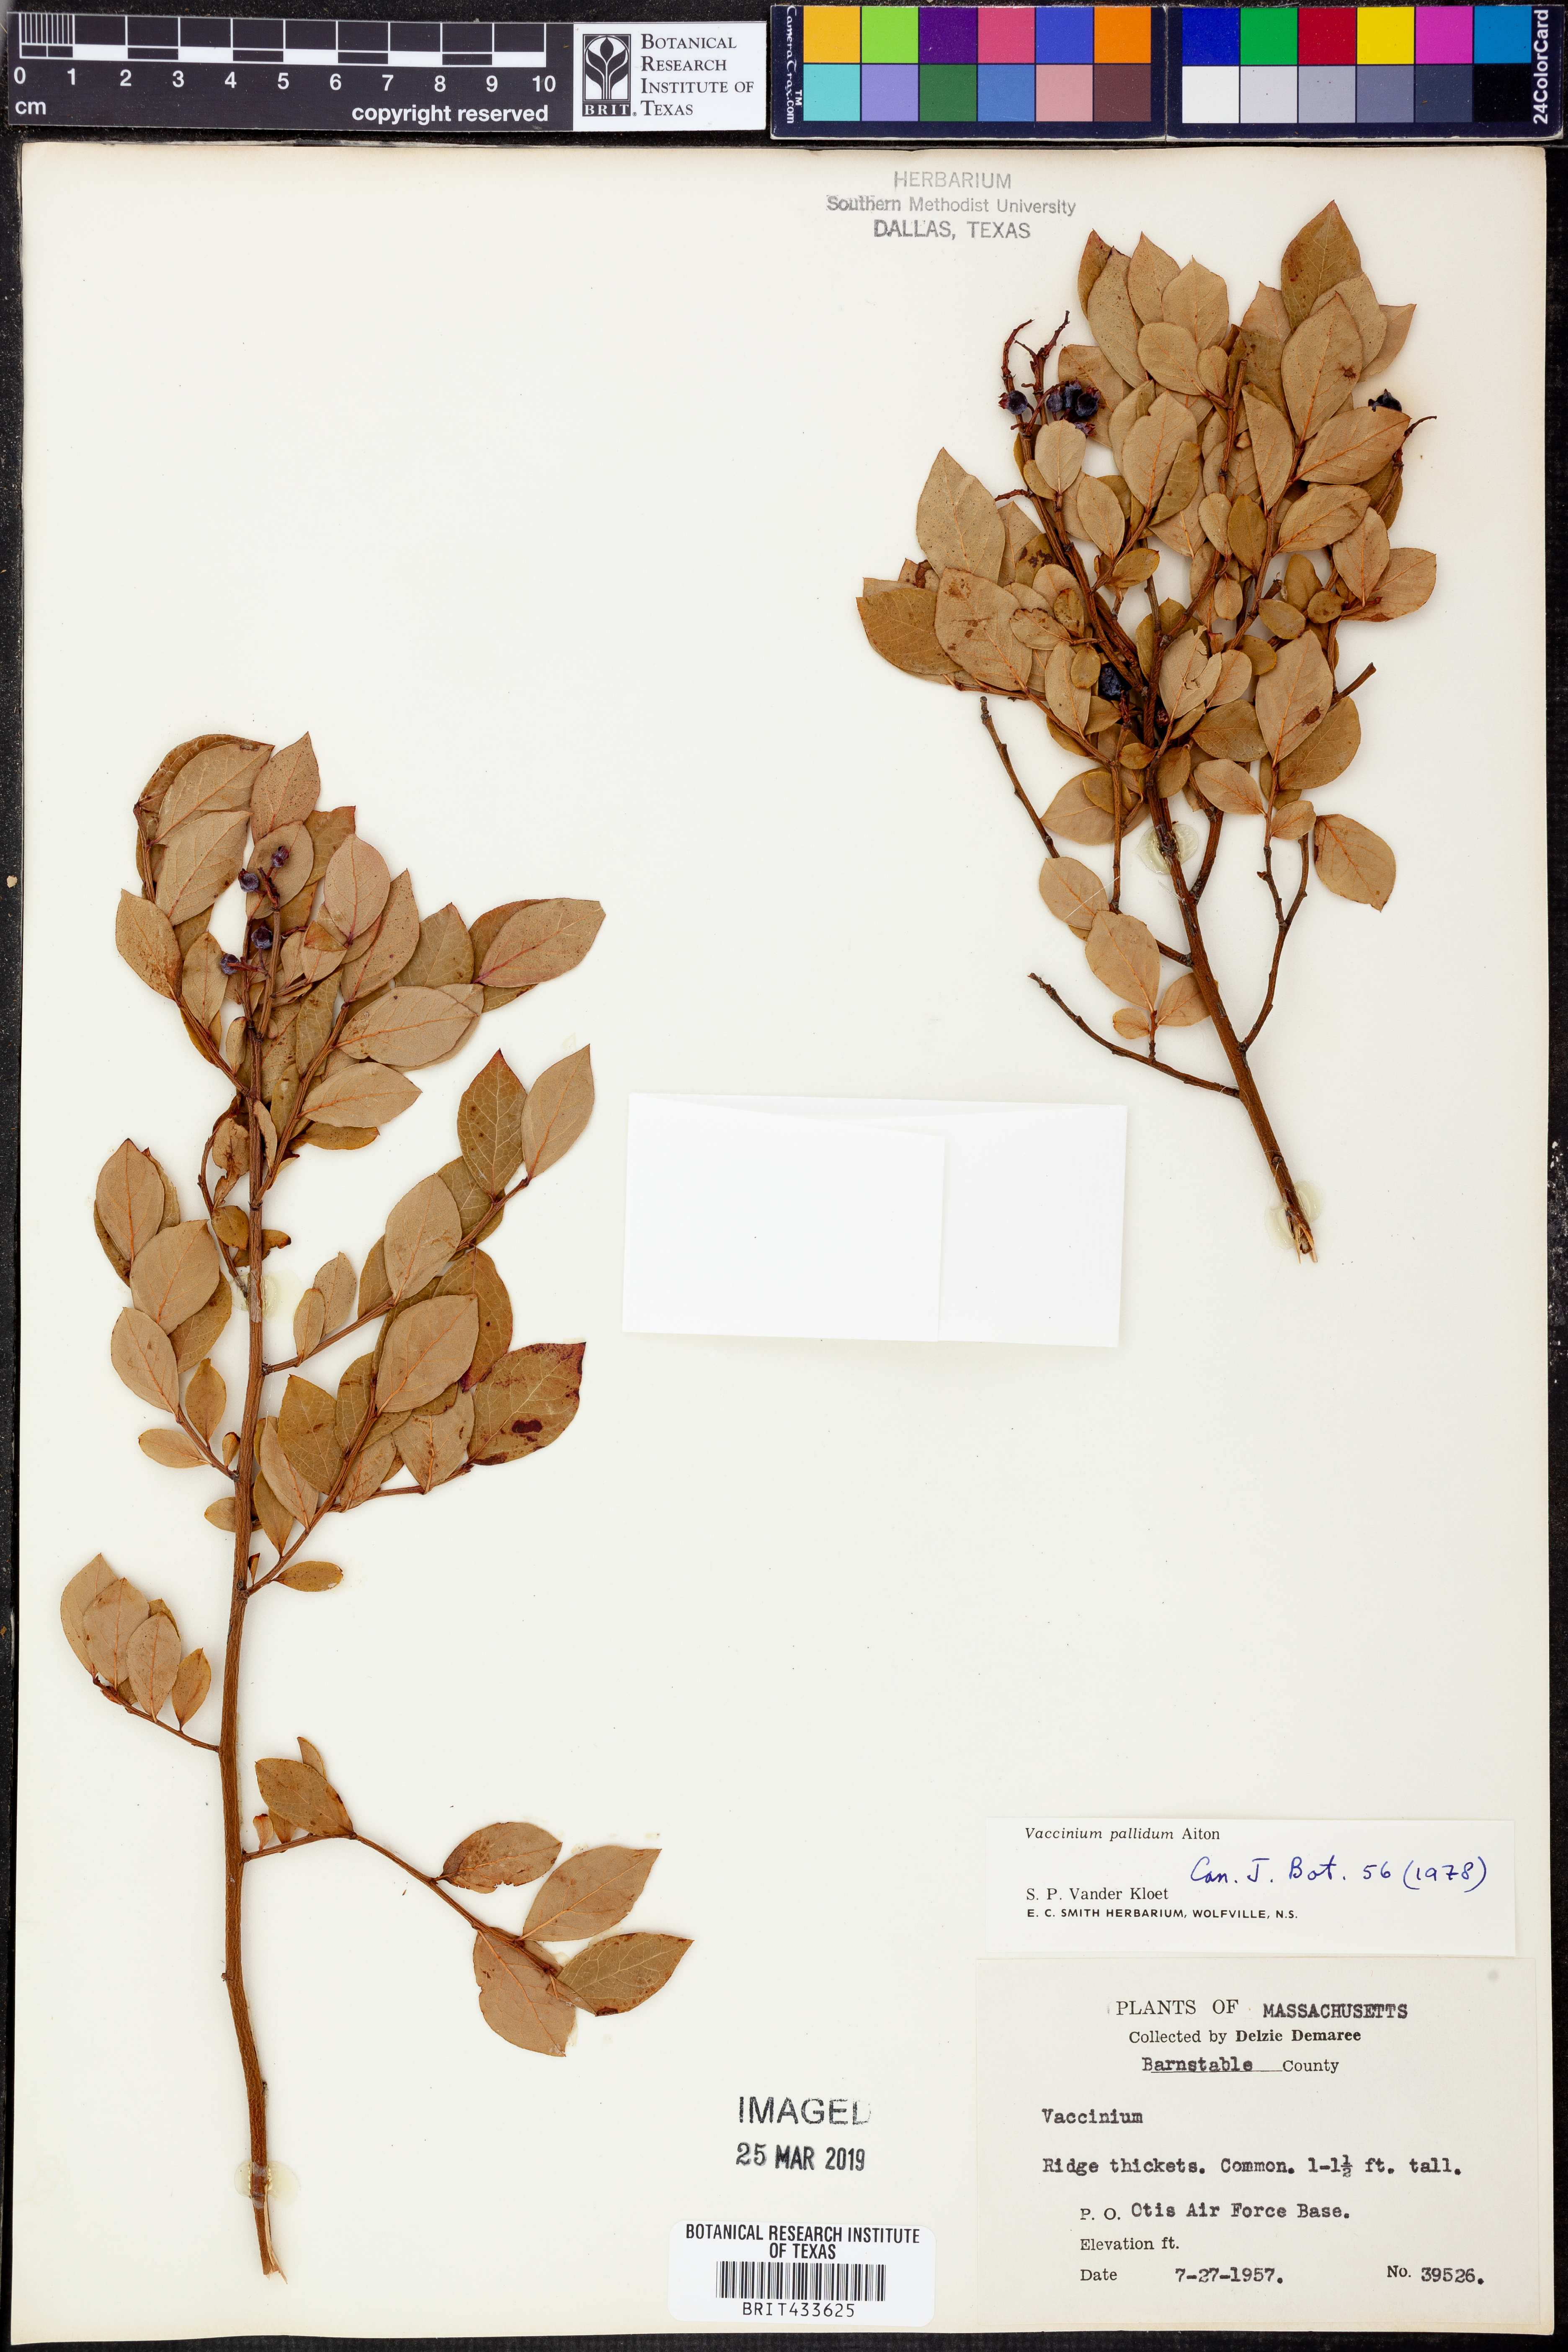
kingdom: Plantae
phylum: Tracheophyta
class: Magnoliopsida
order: Ericales
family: Ericaceae
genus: Vaccinium
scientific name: Vaccinium pallidum
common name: Blue ridge blueberry
